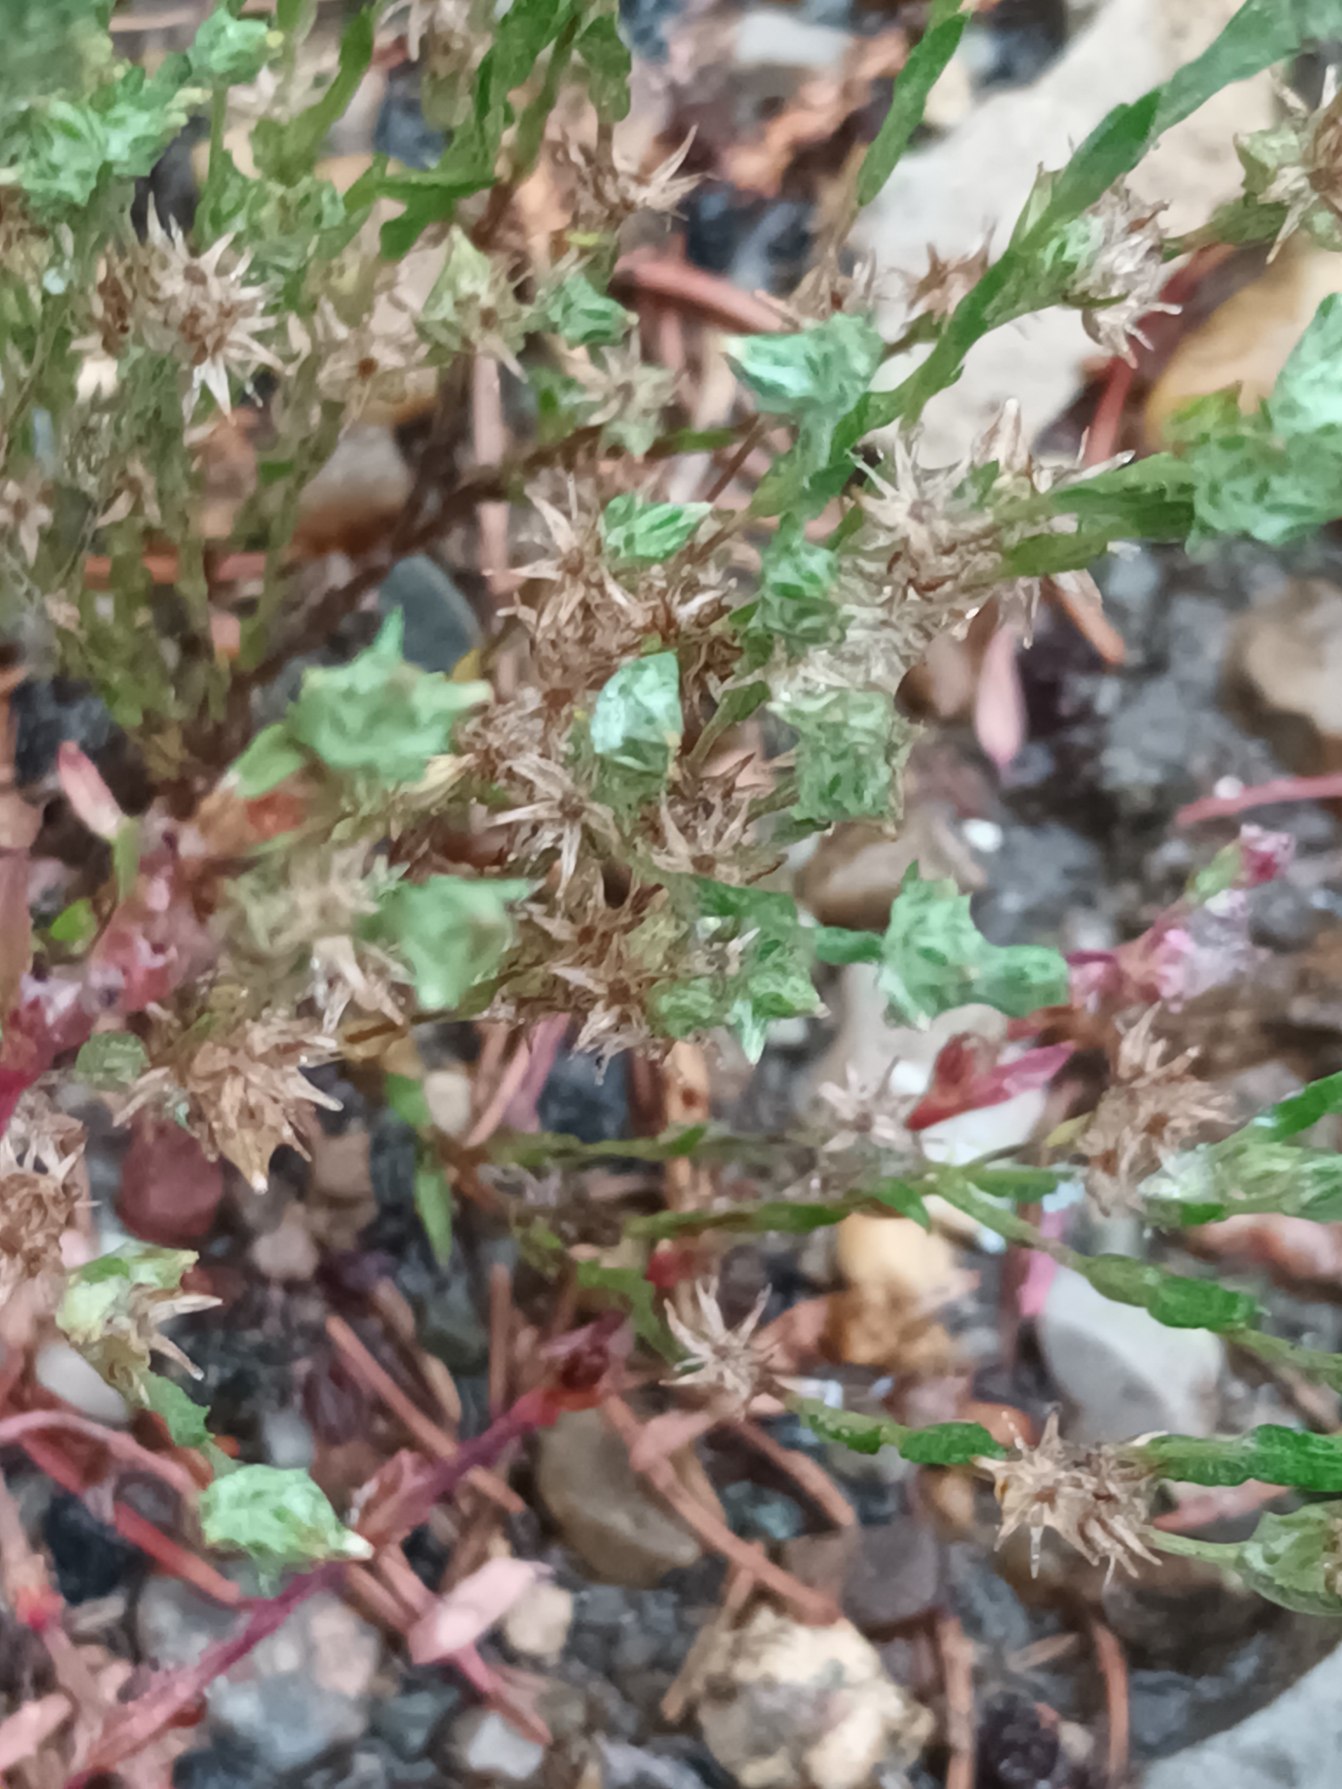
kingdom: Plantae
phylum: Tracheophyta
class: Magnoliopsida
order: Asterales
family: Asteraceae
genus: Logfia
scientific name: Logfia minima
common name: Liden museurt
